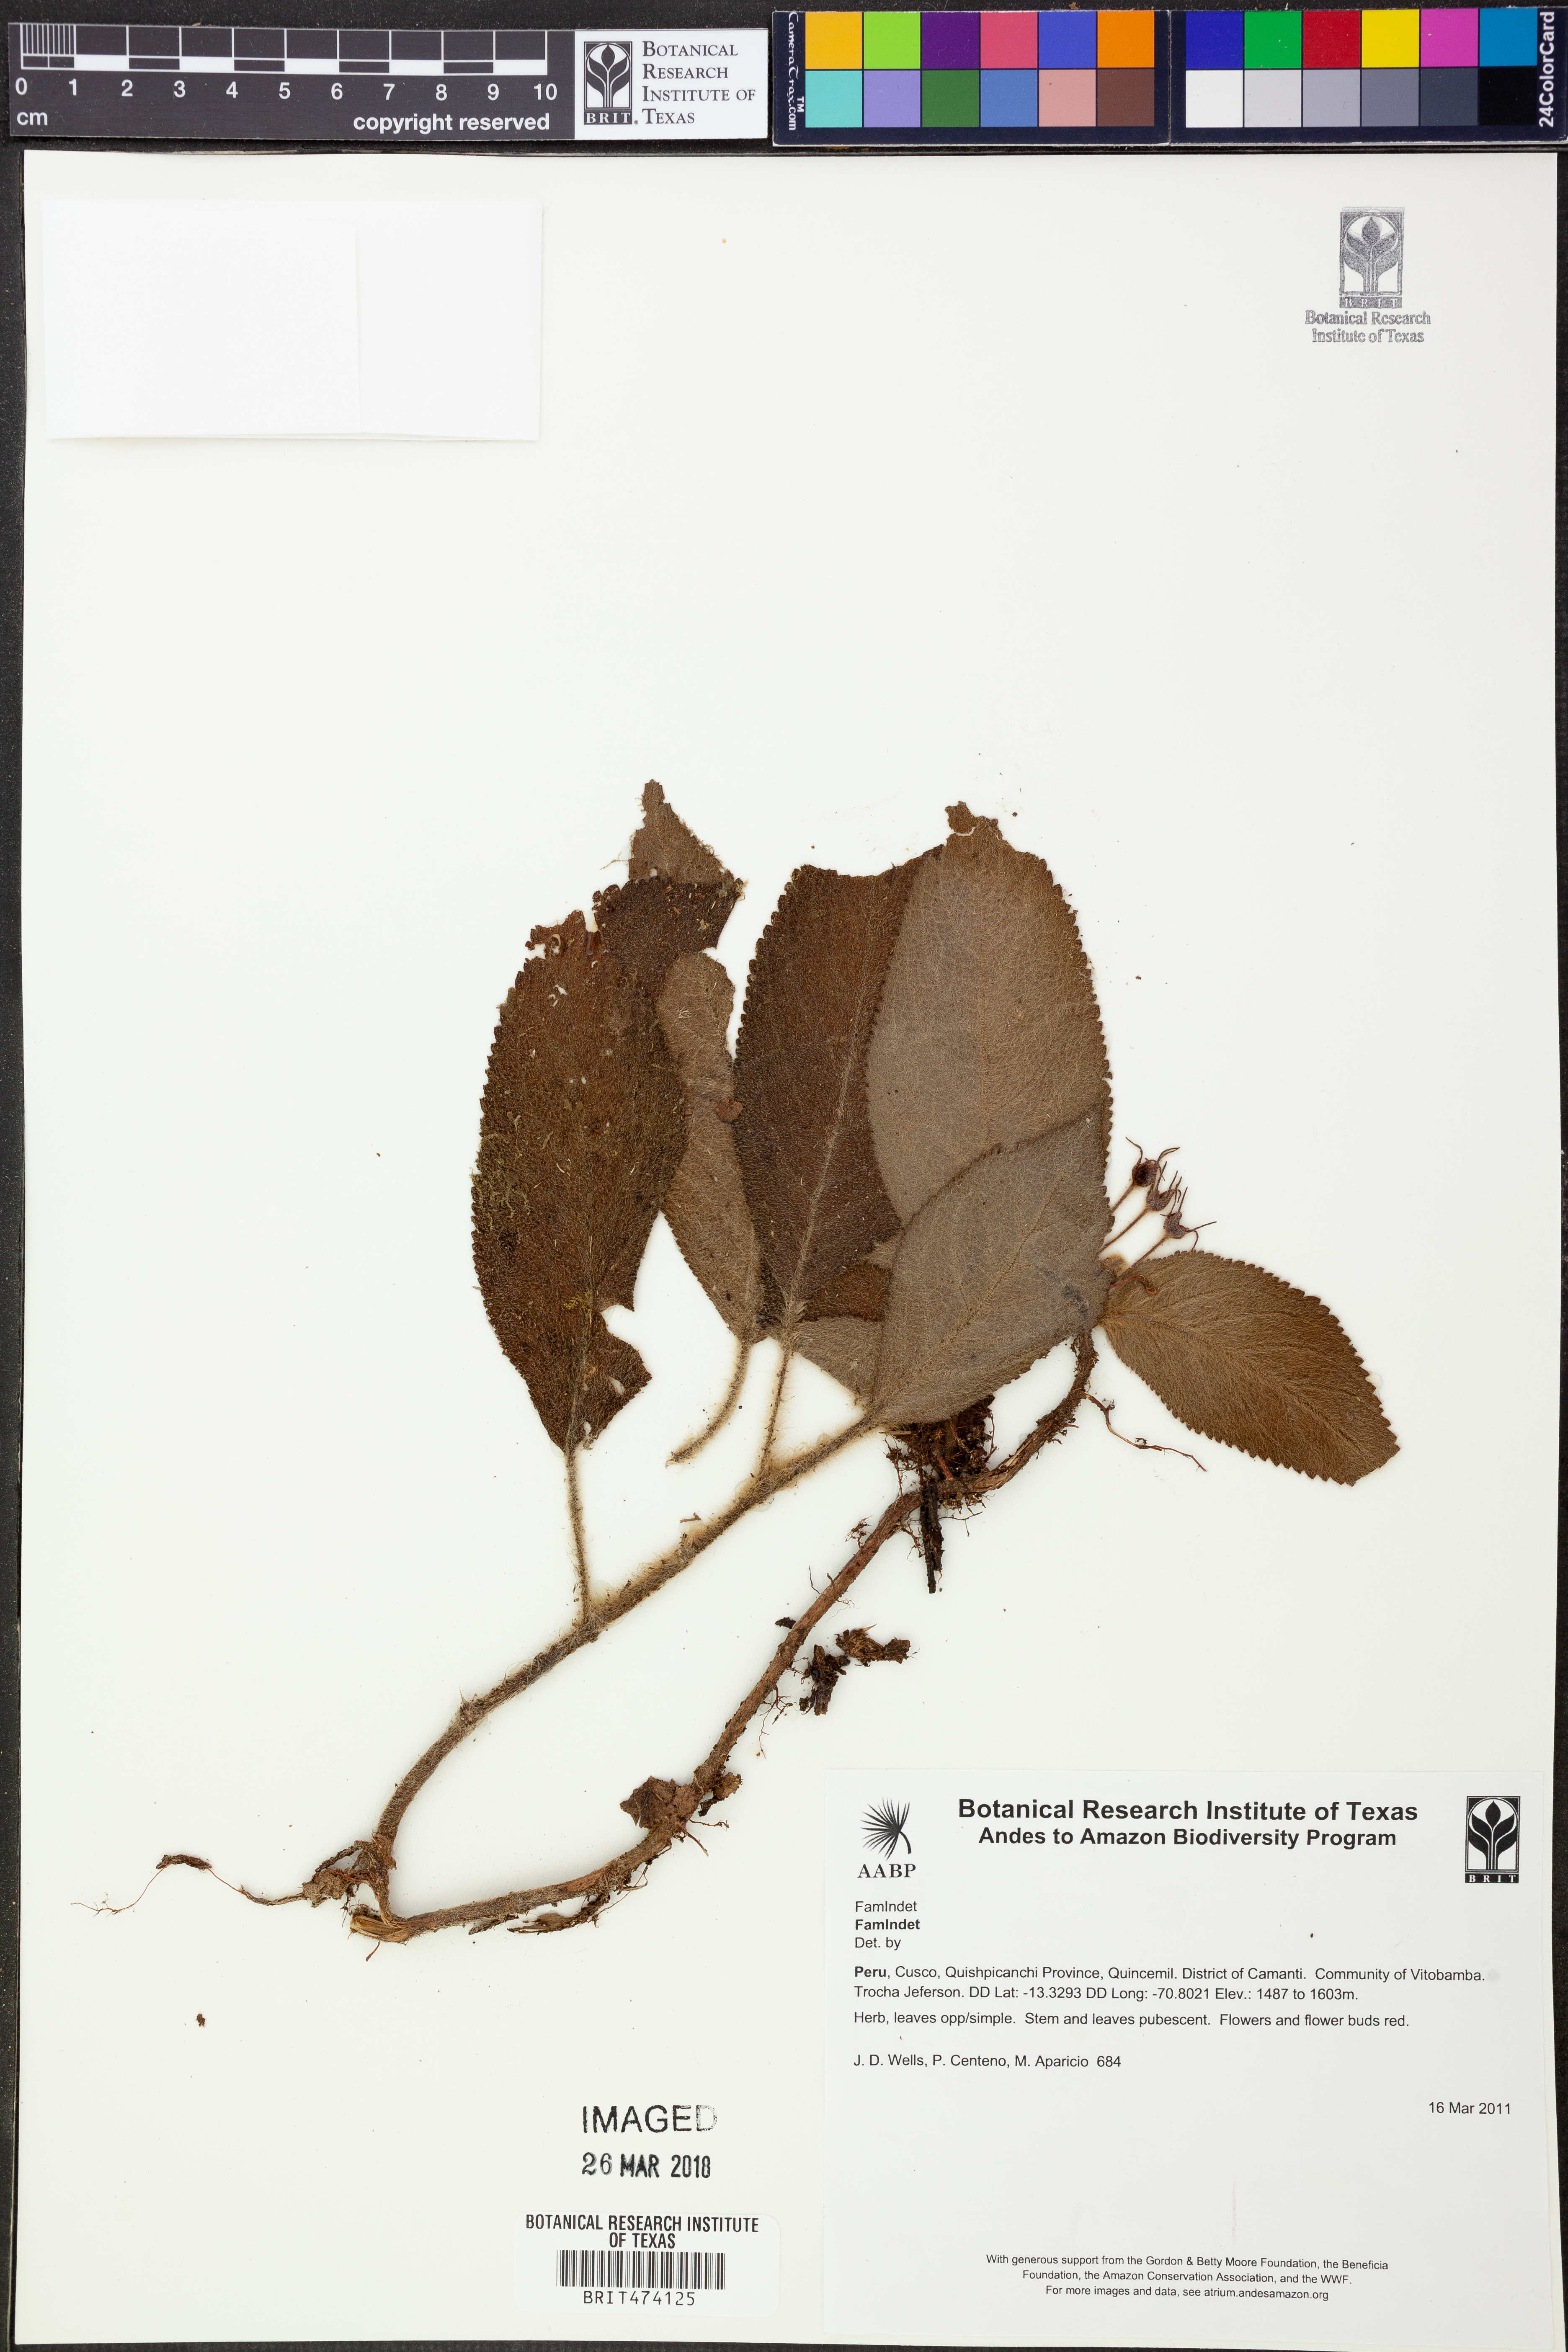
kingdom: Plantae
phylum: Tracheophyta
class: Magnoliopsida
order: Lamiales
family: Gesneriaceae
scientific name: Gesneriaceae
